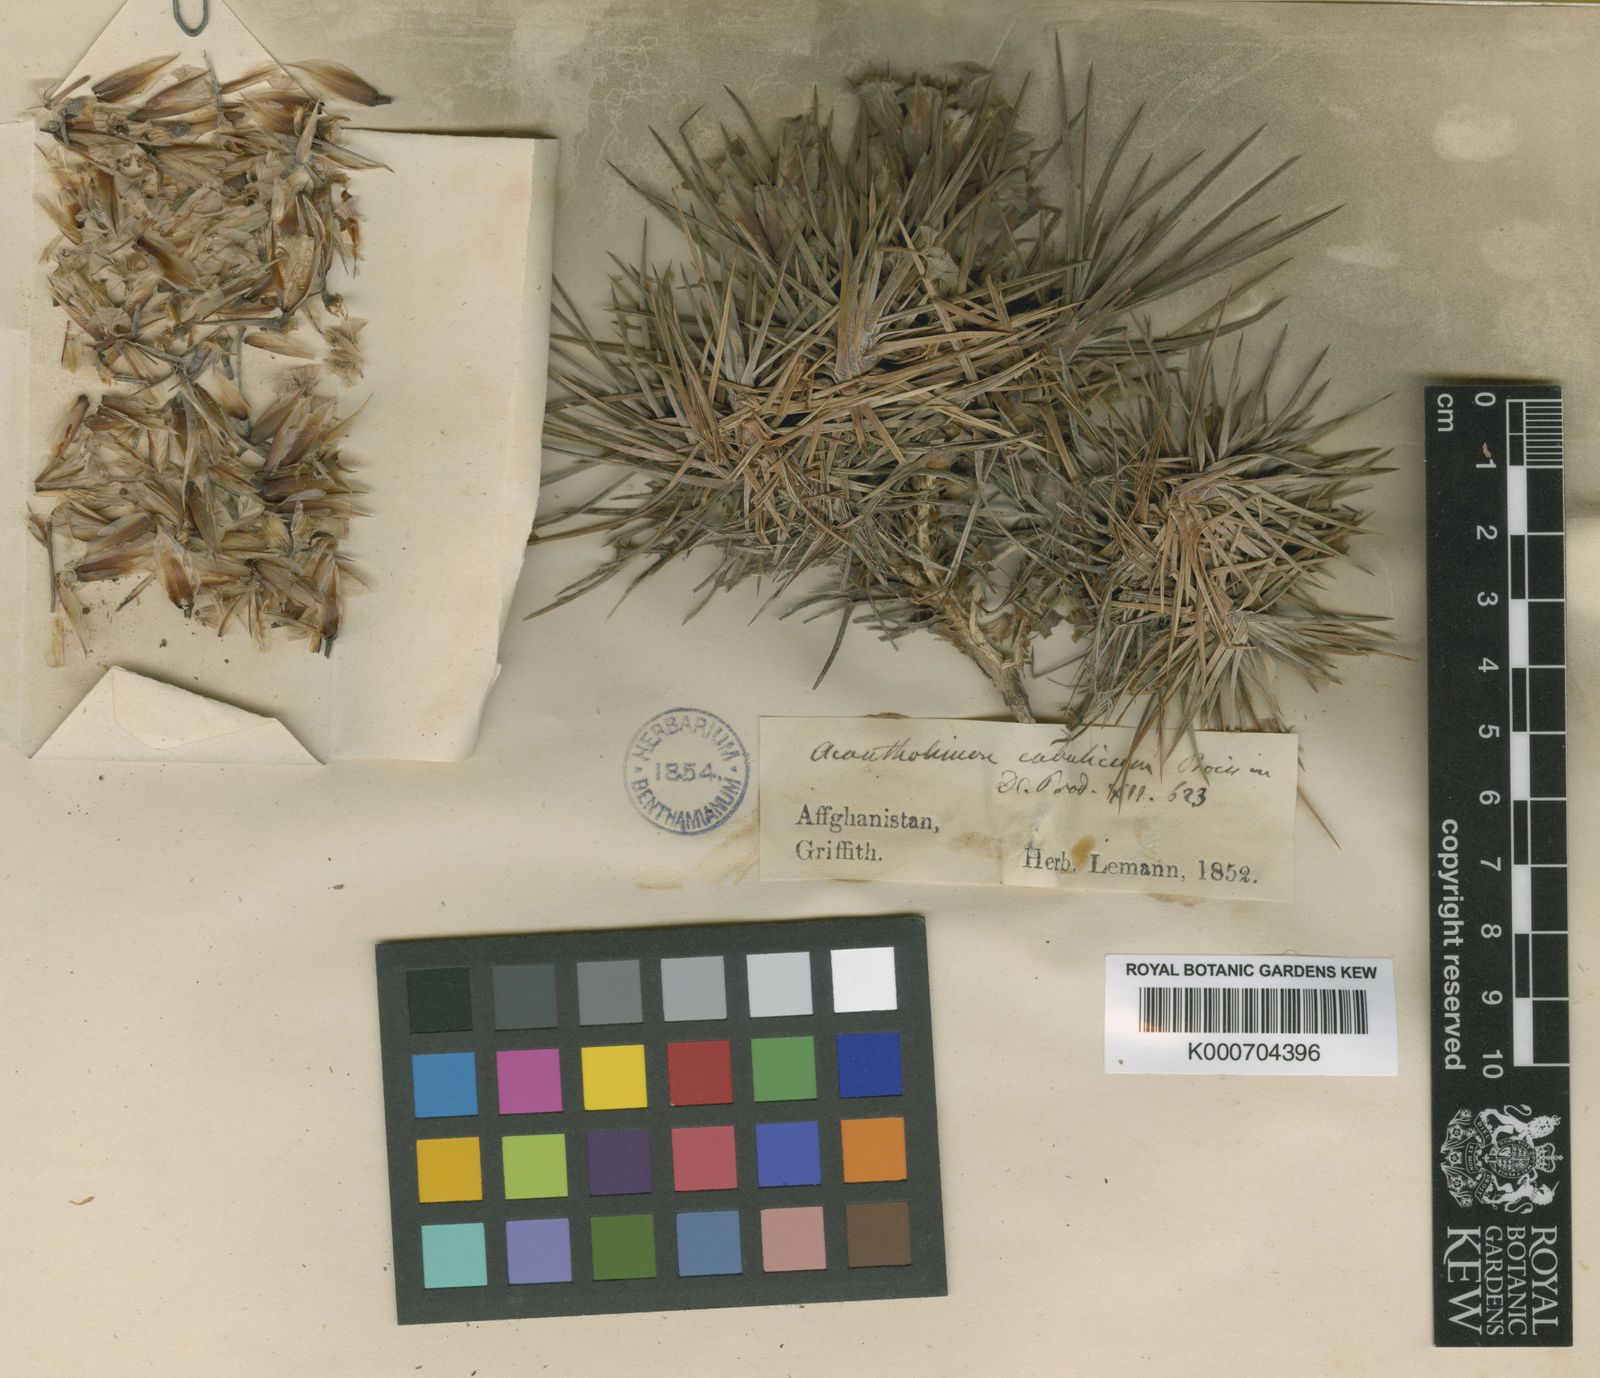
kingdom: Plantae
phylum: Tracheophyta
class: Magnoliopsida
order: Caryophyllales
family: Plumbaginaceae
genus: Acantholimon
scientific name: Acantholimon cabulicum
